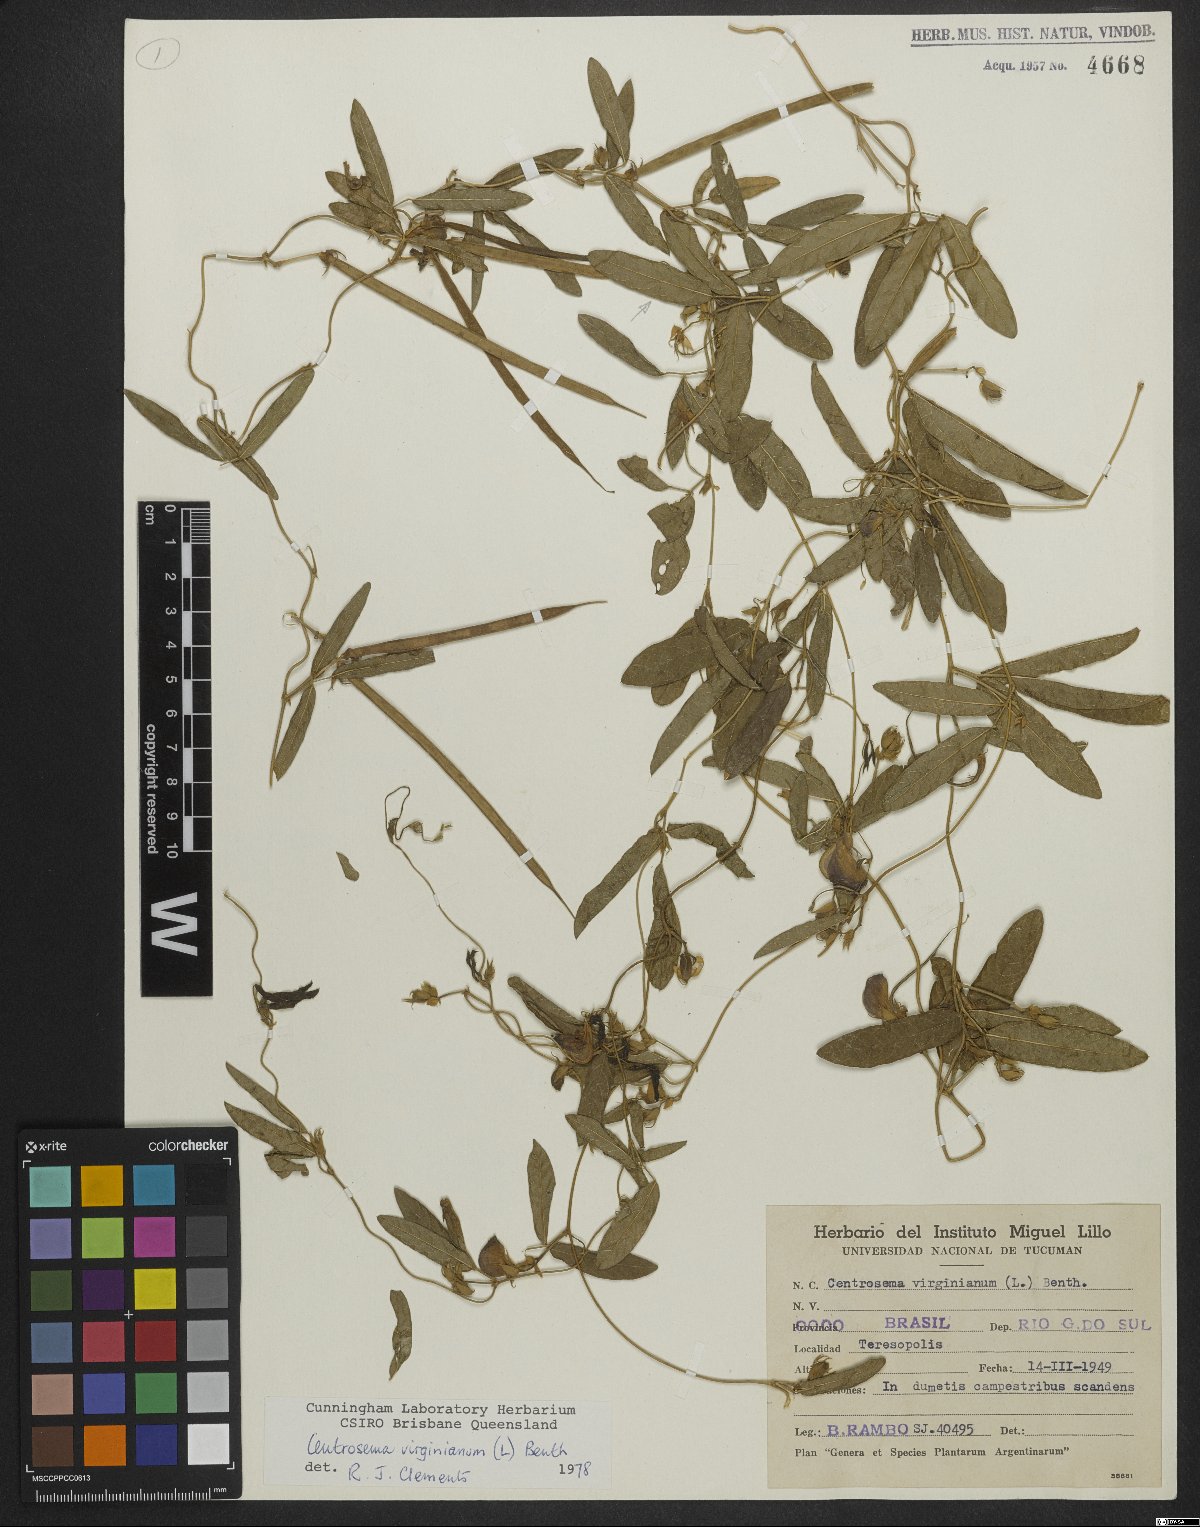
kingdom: Plantae
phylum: Tracheophyta
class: Magnoliopsida
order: Fabales
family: Fabaceae
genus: Centrosema
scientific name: Centrosema virginianum
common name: Butterfly-pea
